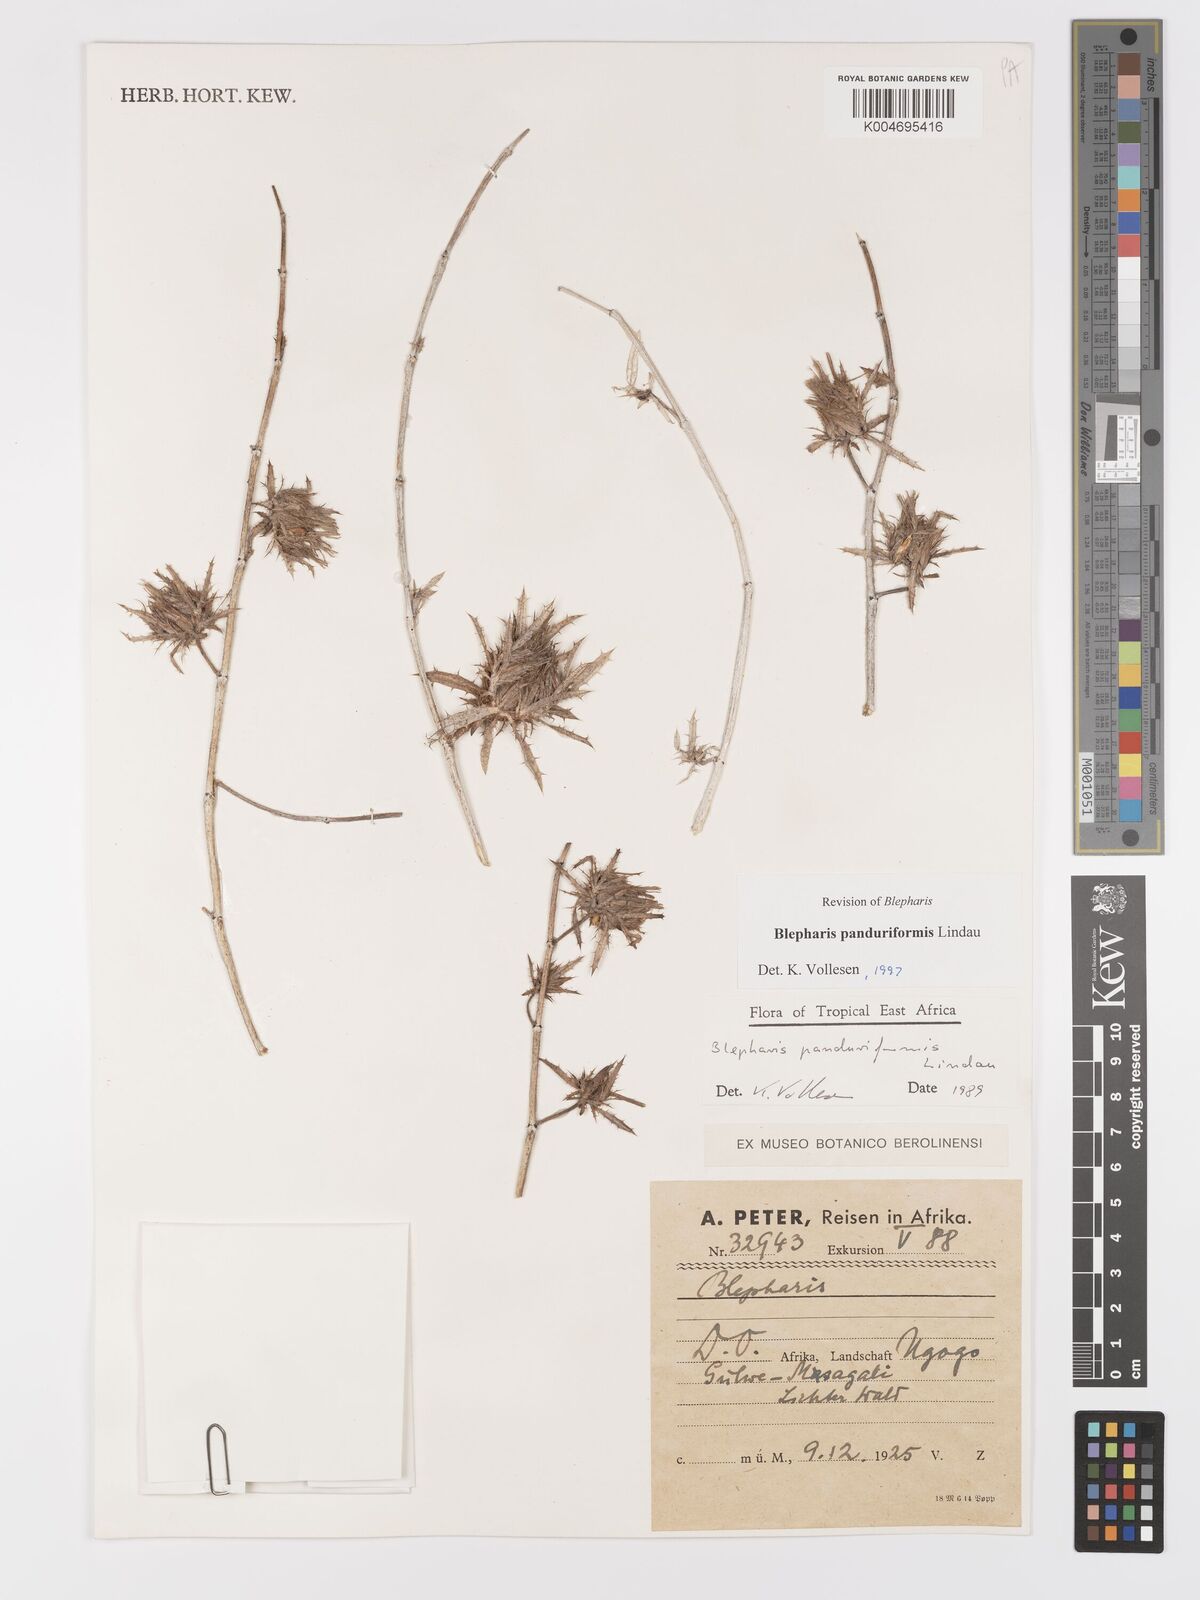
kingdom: Plantae
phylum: Tracheophyta
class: Magnoliopsida
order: Lamiales
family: Acanthaceae
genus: Blepharis
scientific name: Blepharis panduriformis
